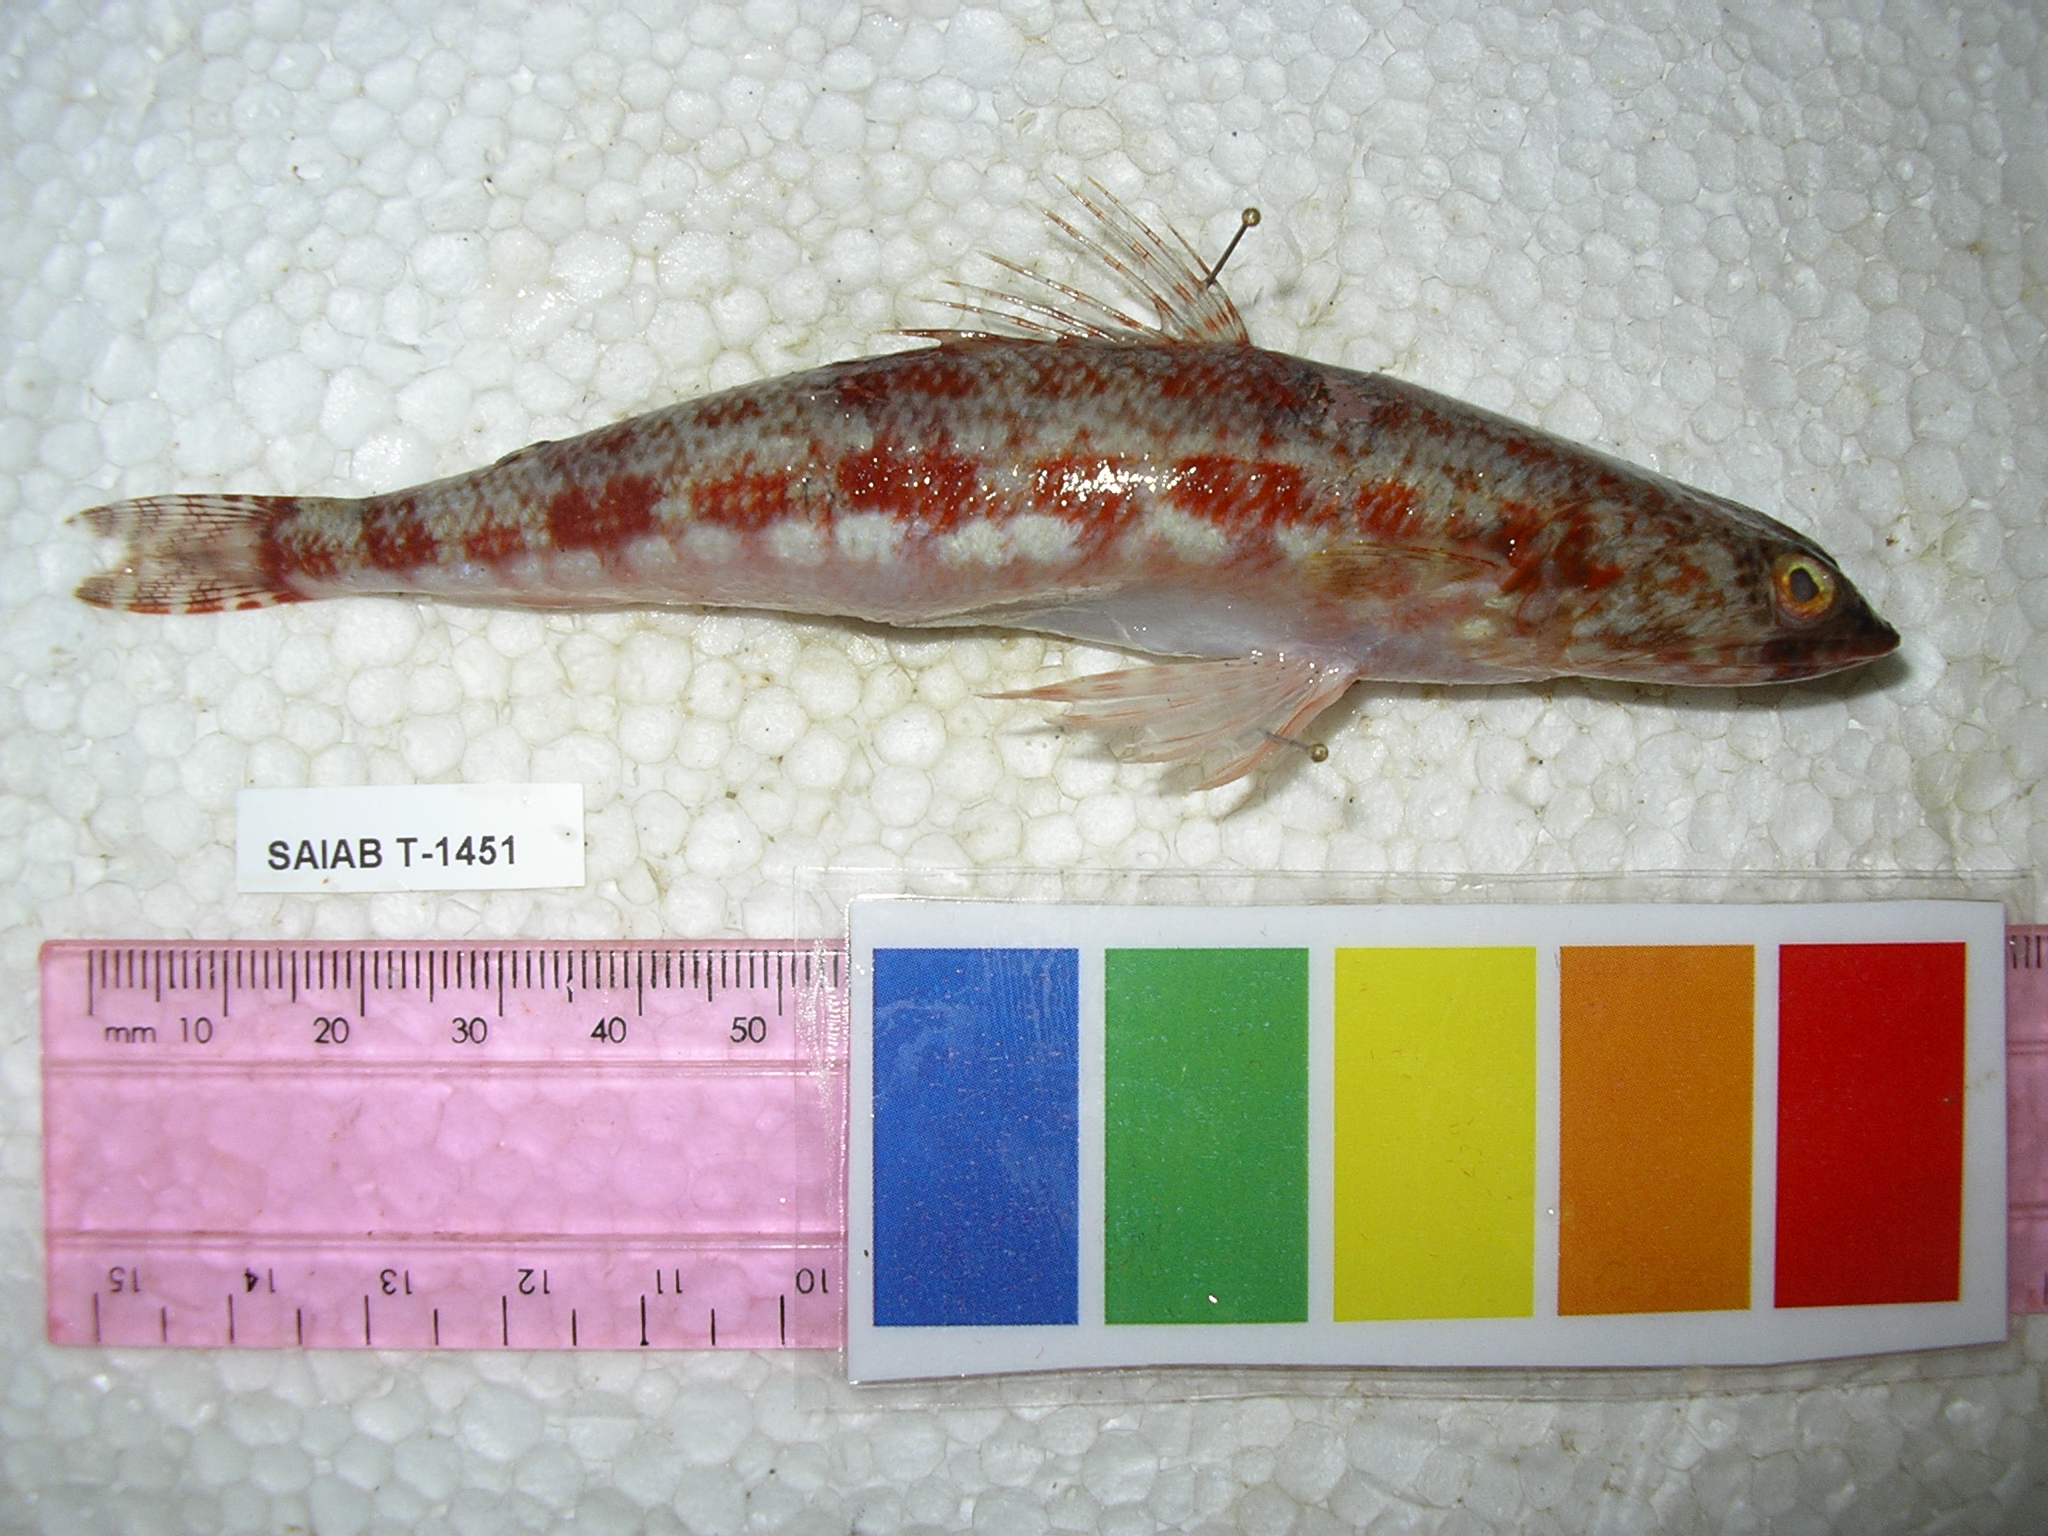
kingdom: Animalia
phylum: Chordata
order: Aulopiformes
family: Synodontidae
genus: Synodus
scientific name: Synodus variegatus
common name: Variegated lizardfish
